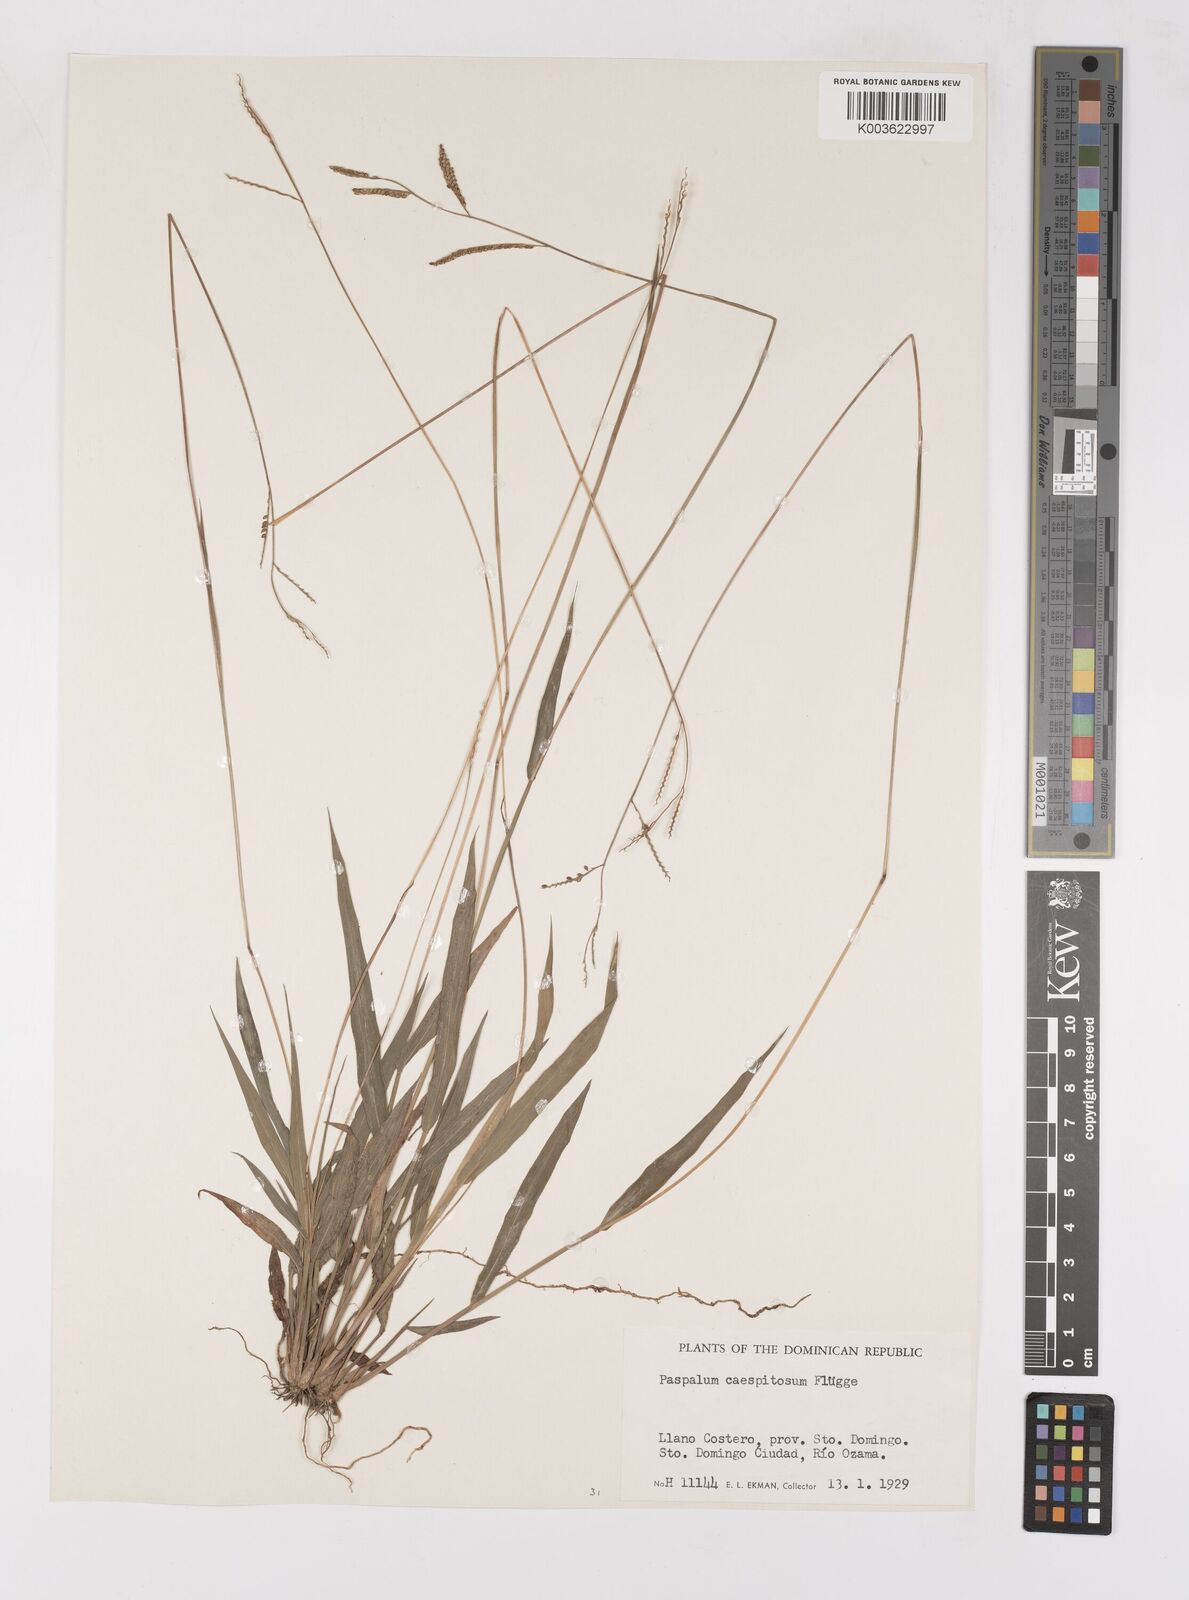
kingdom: Plantae
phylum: Tracheophyta
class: Liliopsida
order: Poales
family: Poaceae
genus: Paspalum
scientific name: Paspalum blodgettii
